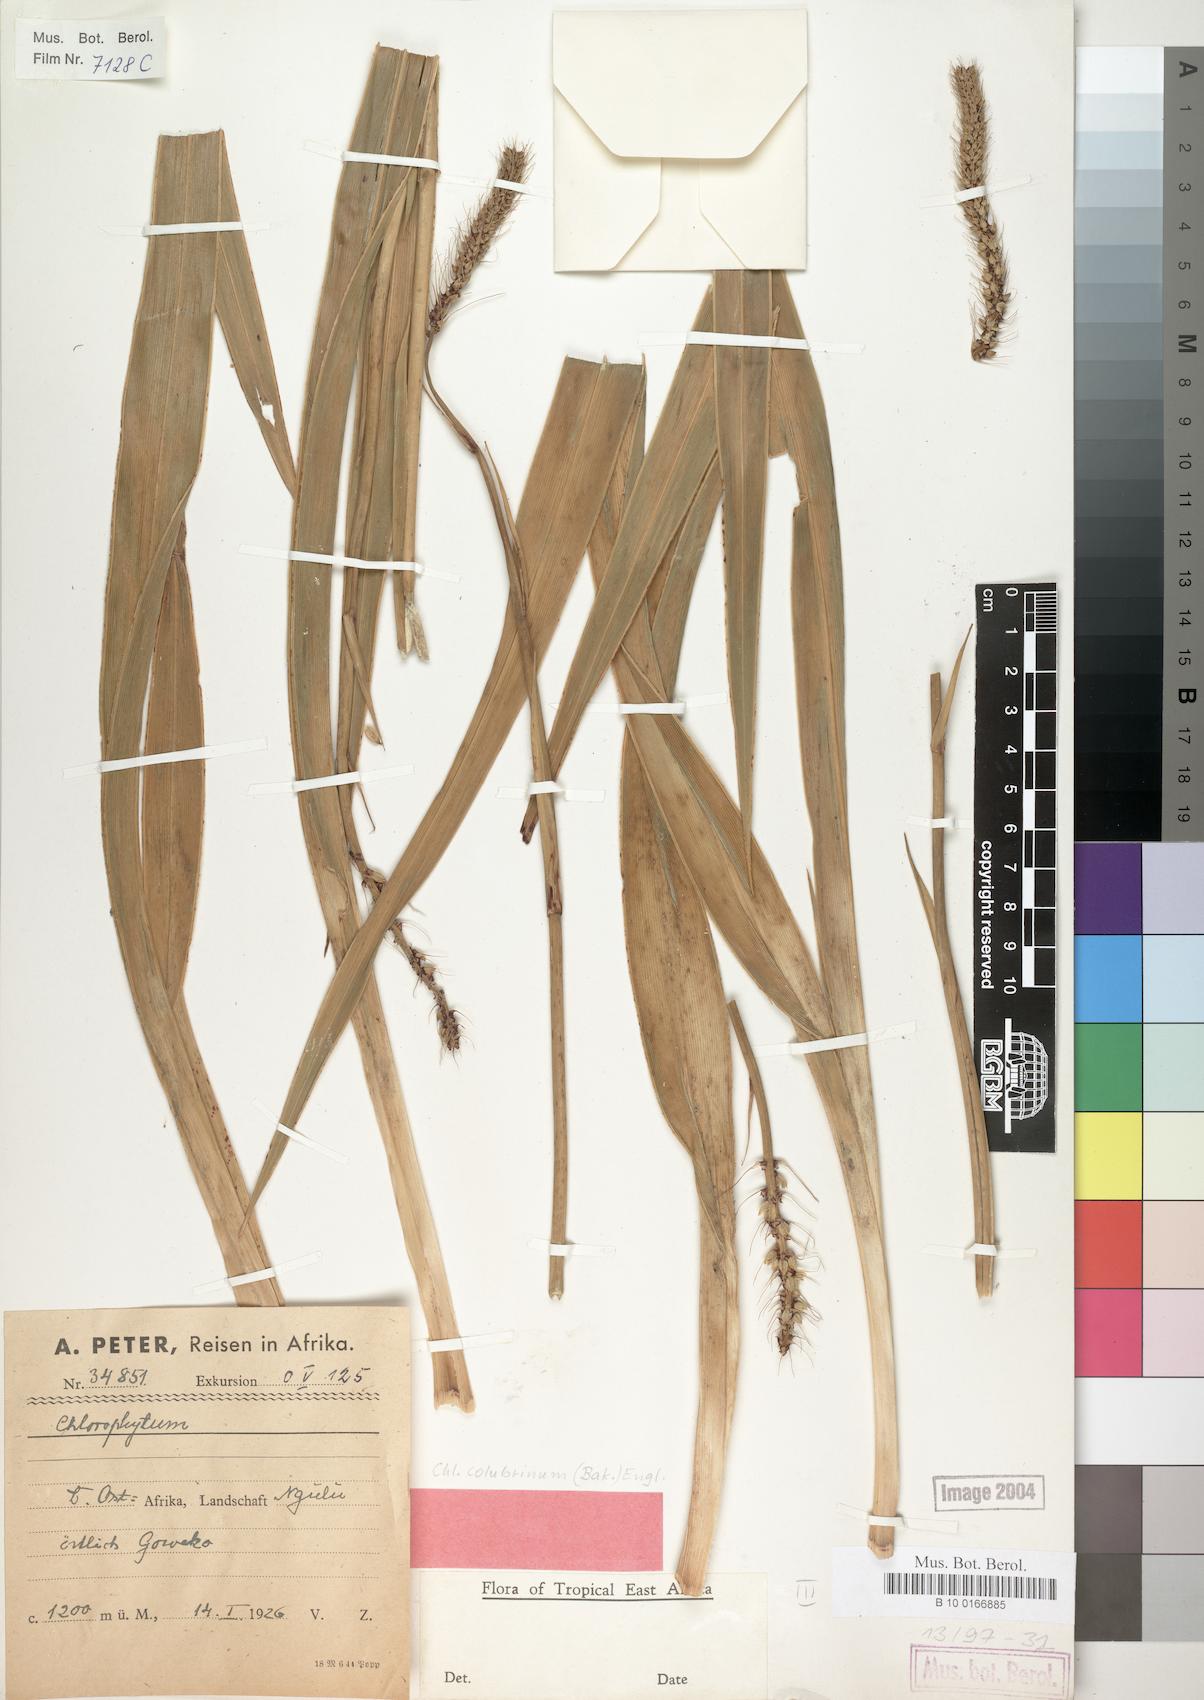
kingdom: Plantae
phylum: Tracheophyta
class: Liliopsida
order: Asparagales
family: Asparagaceae
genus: Chlorophytum
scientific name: Chlorophytum colubrinum
